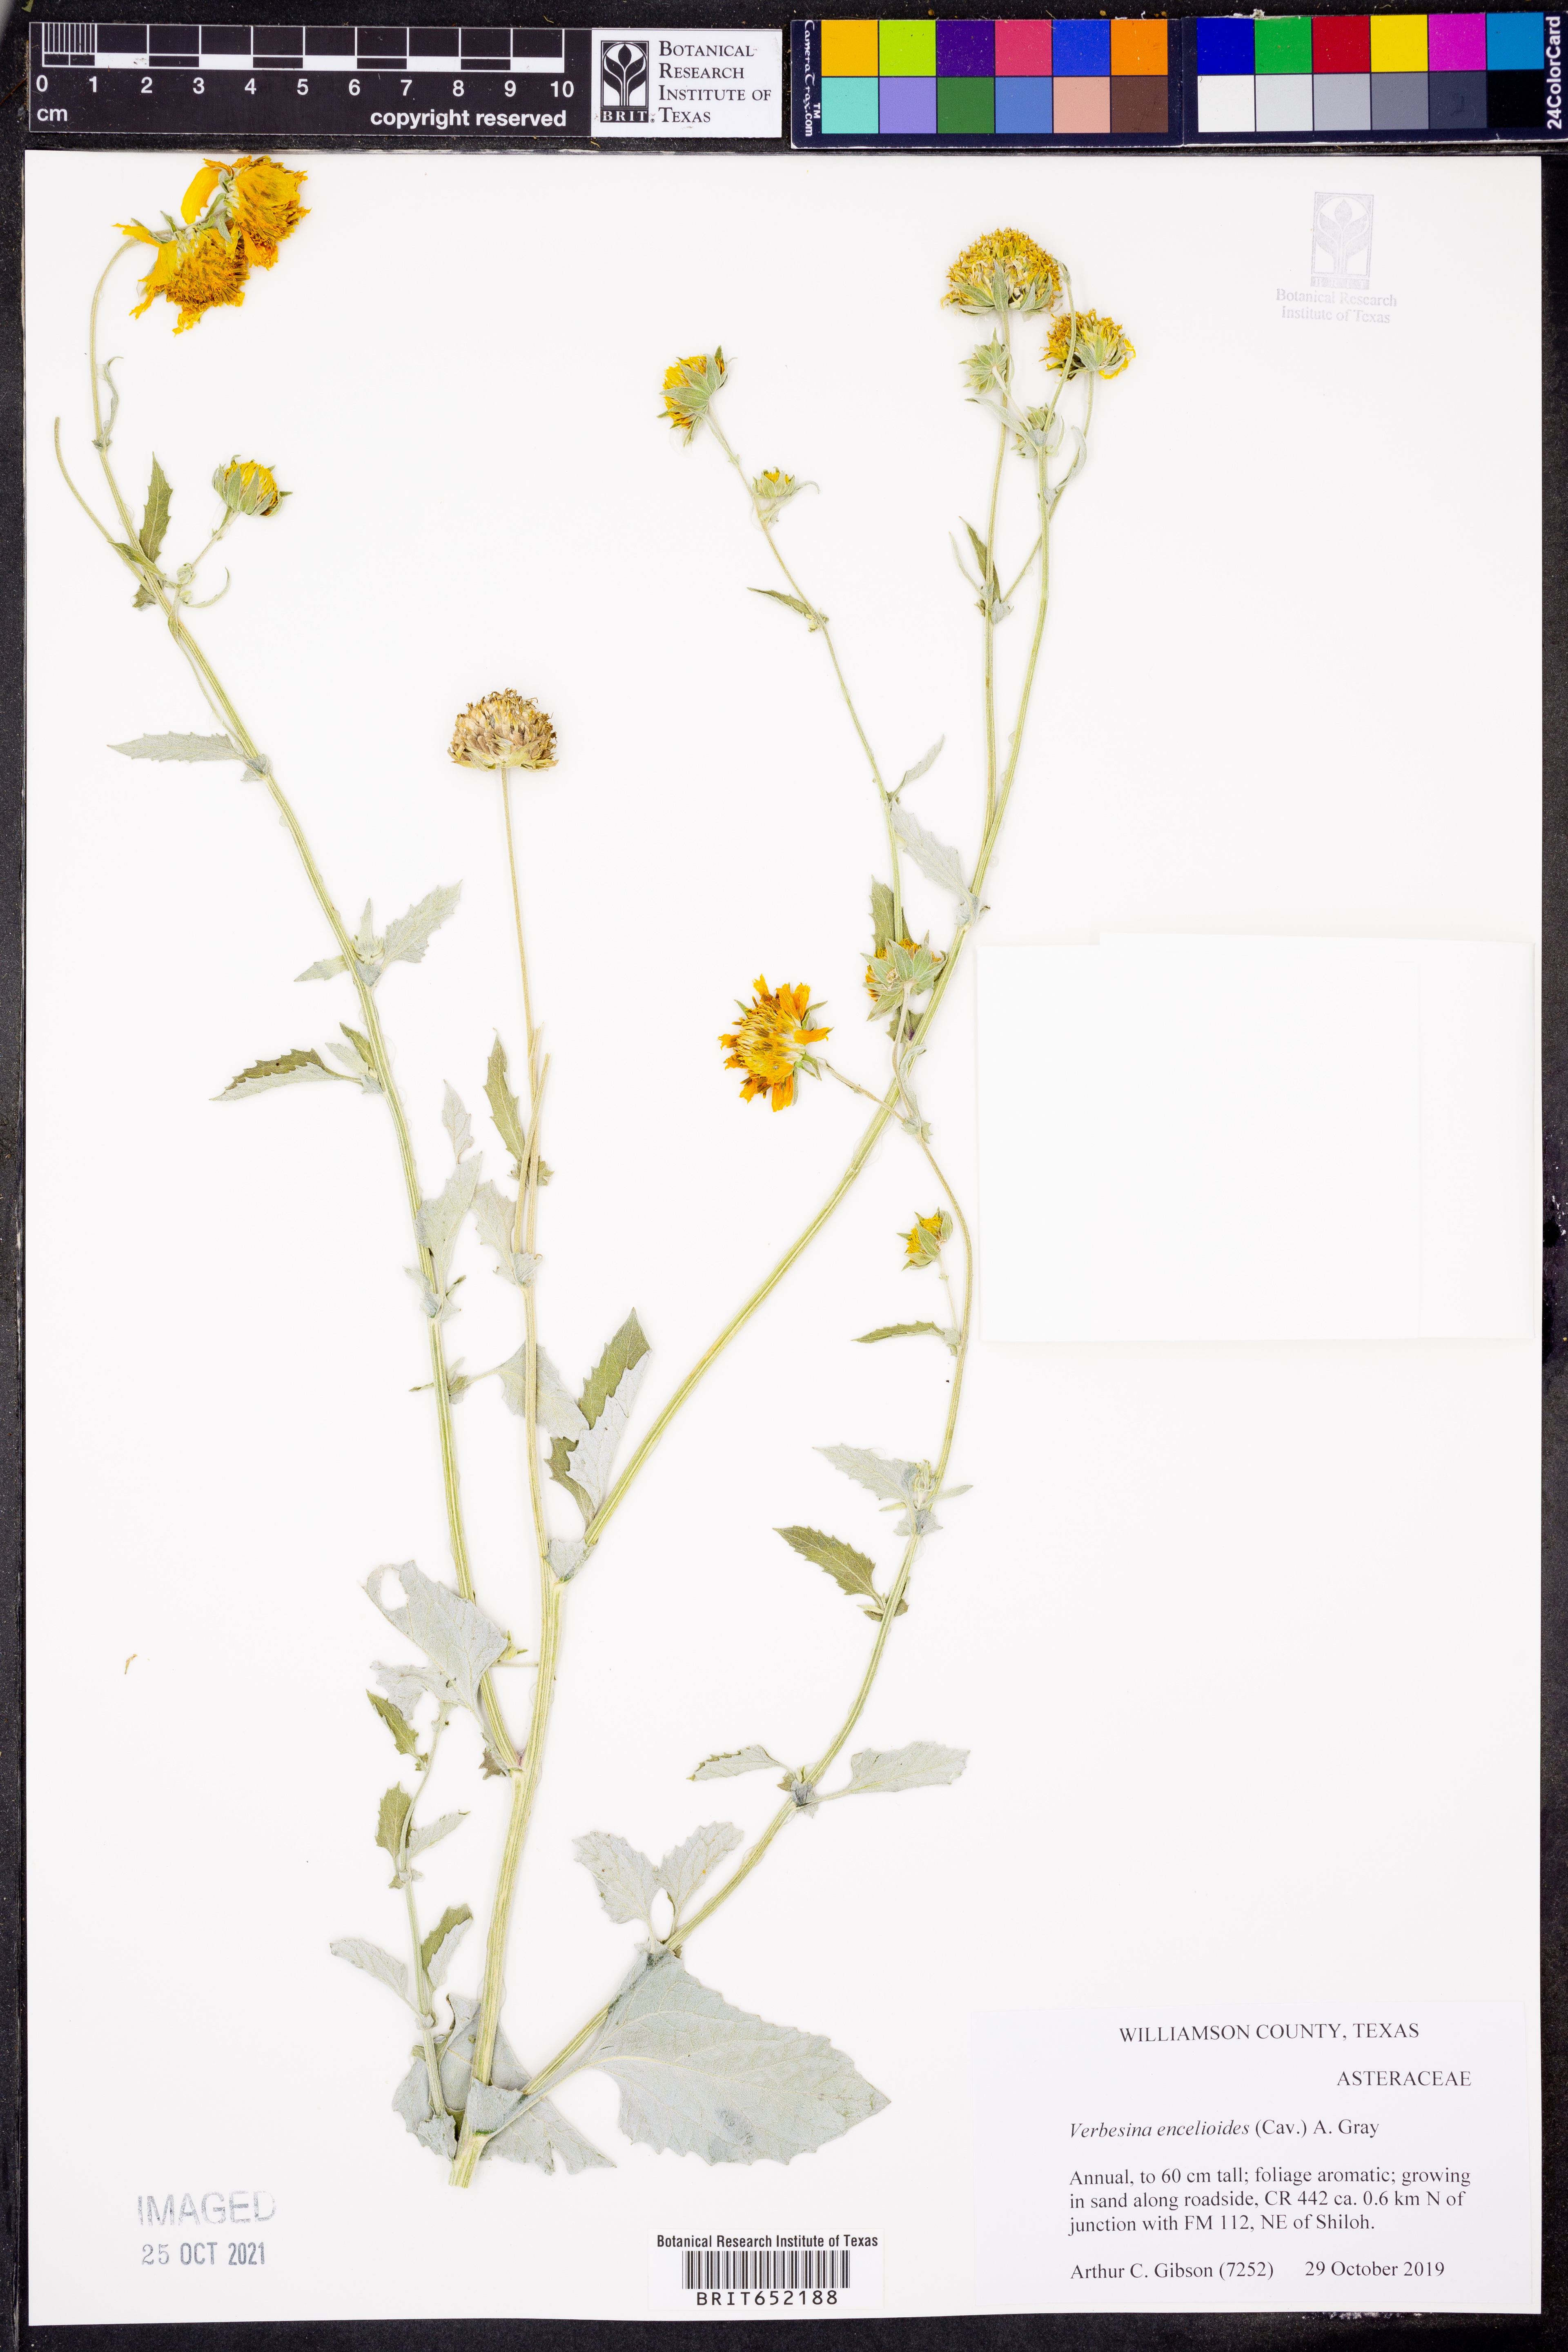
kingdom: Plantae
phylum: Tracheophyta
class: Magnoliopsida
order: Asterales
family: Asteraceae
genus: Verbesina
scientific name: Verbesina encelioides
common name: Golden crownbeard
